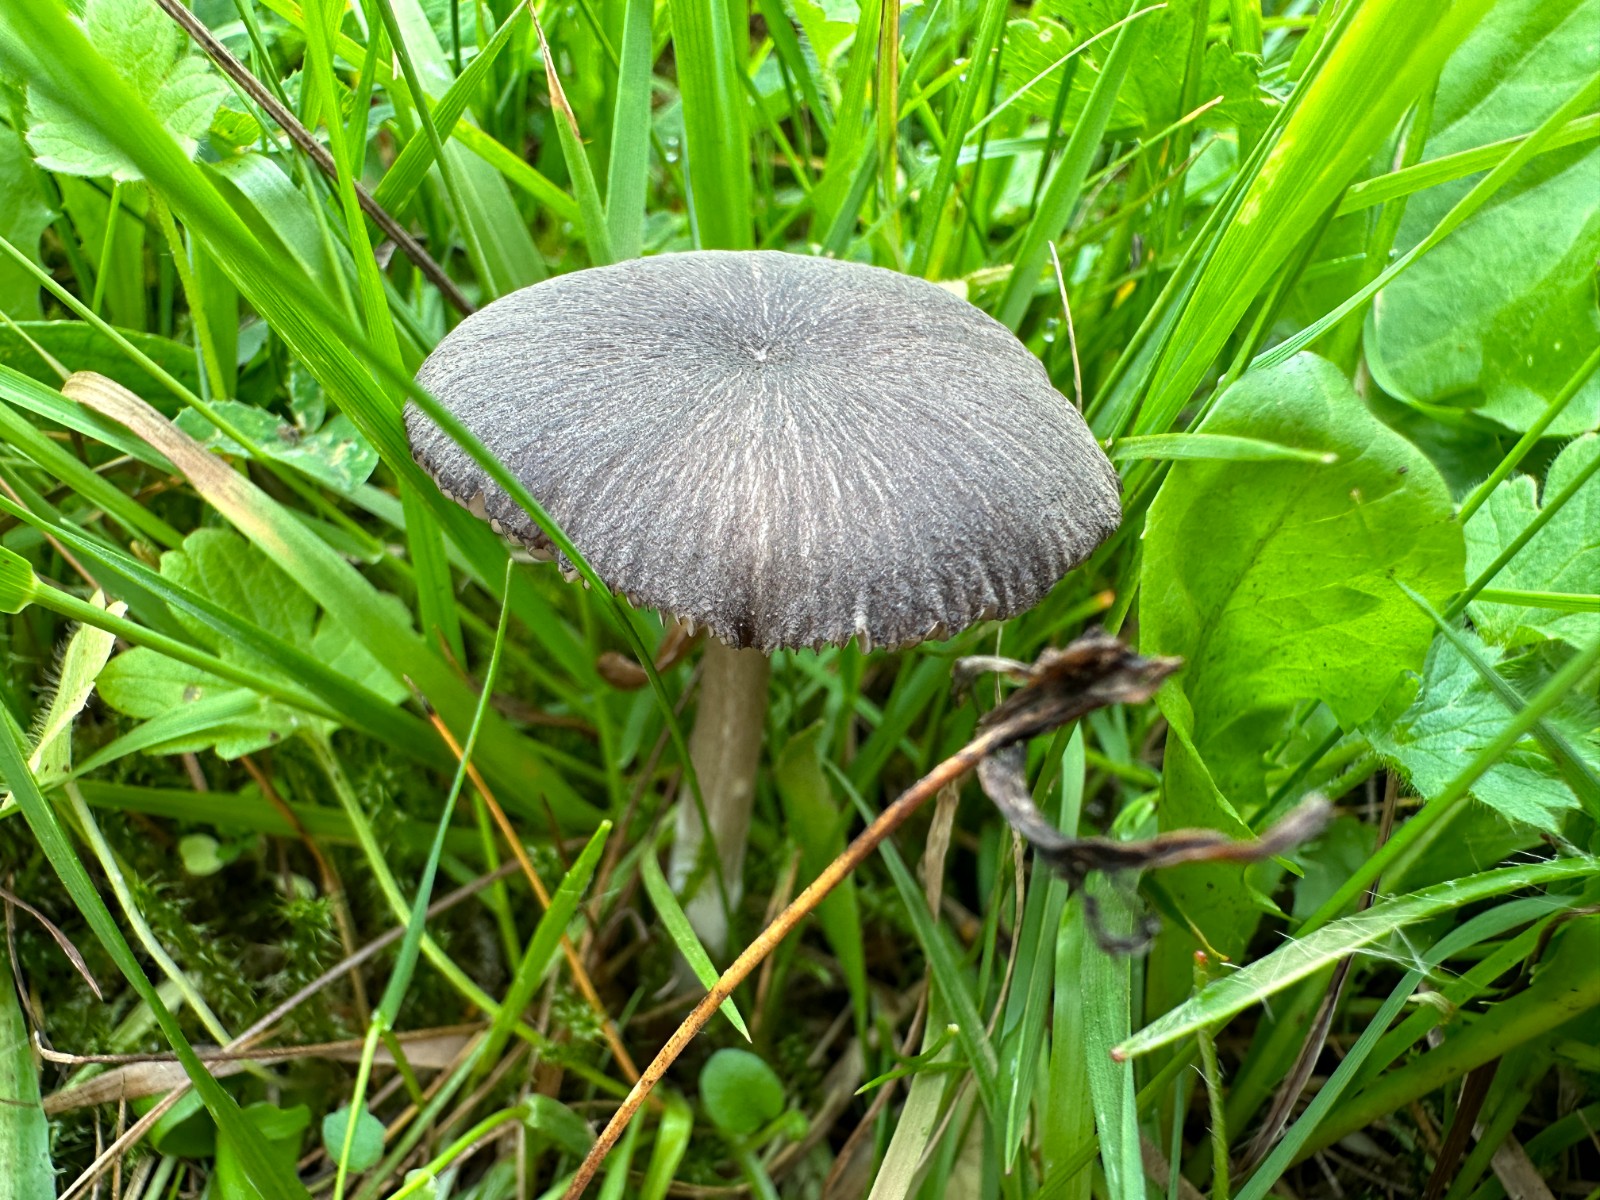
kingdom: Fungi
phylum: Basidiomycota
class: Agaricomycetes
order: Agaricales
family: Entolomataceae
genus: Entoloma
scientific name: Entoloma
